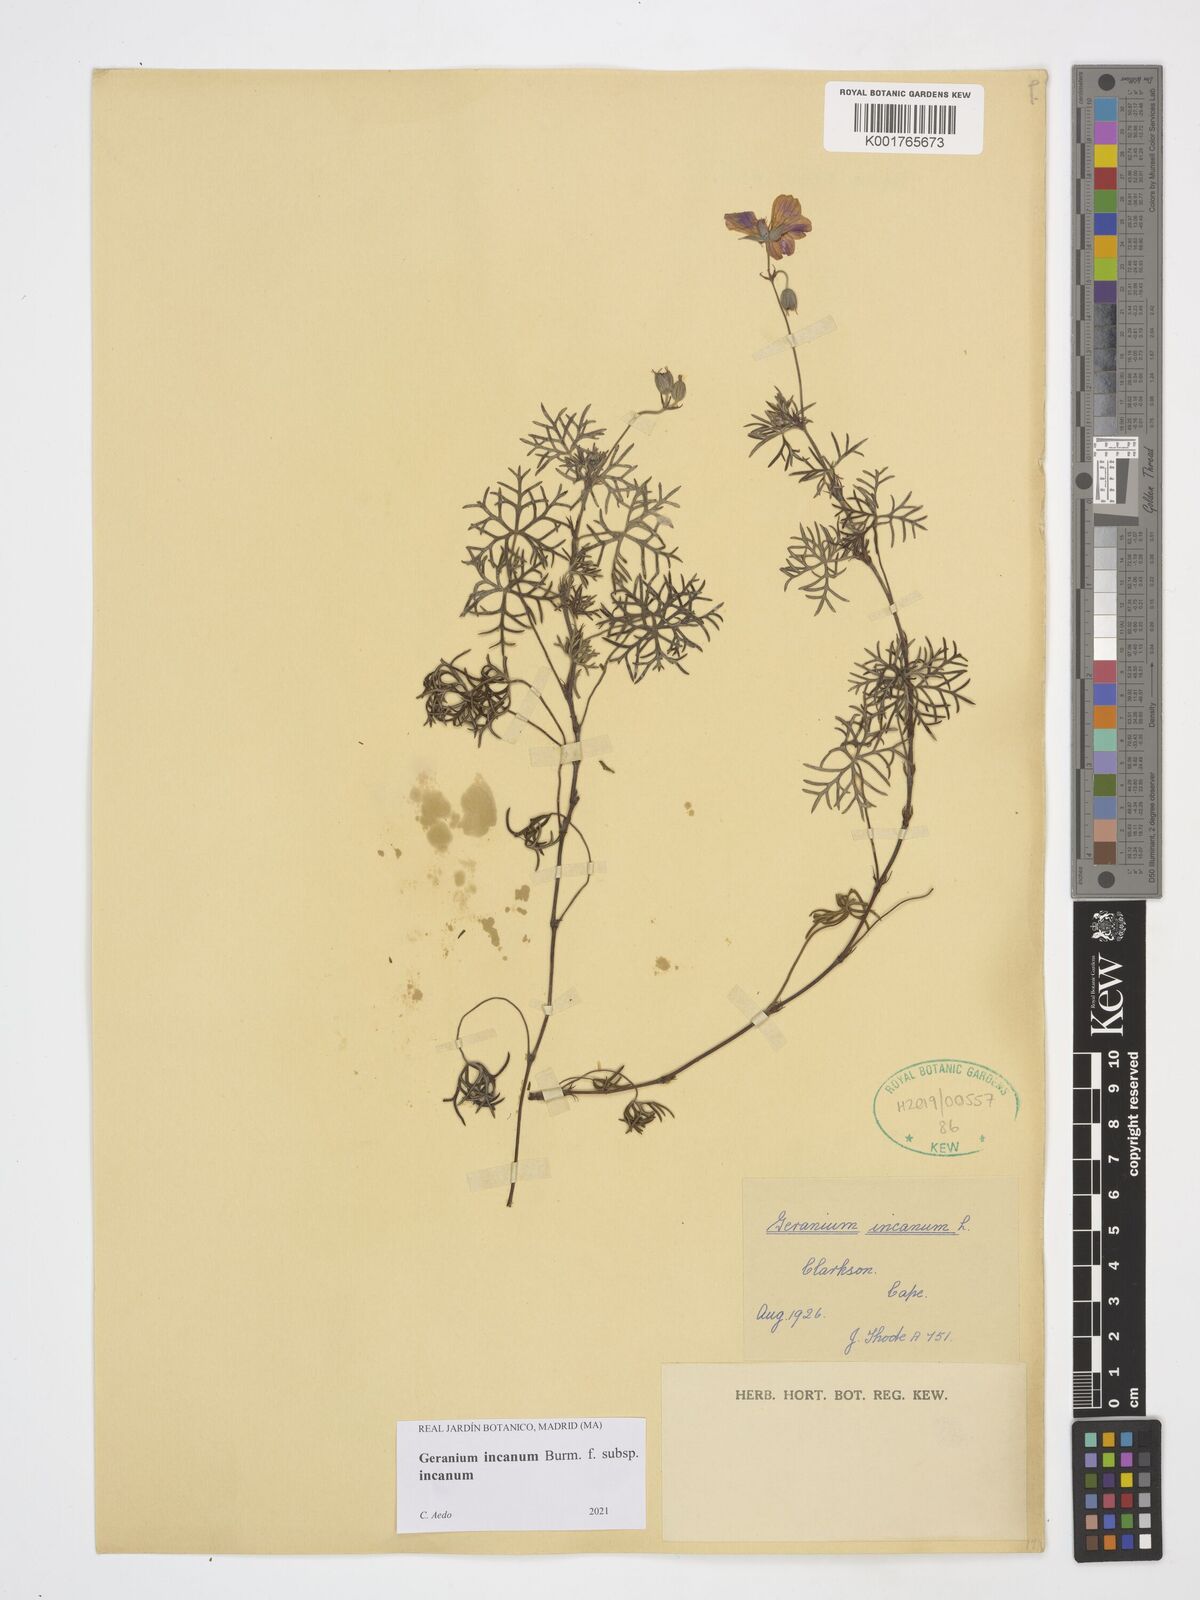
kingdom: Plantae
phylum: Tracheophyta
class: Magnoliopsida
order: Geraniales
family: Geraniaceae
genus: Geranium
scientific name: Geranium incanum
